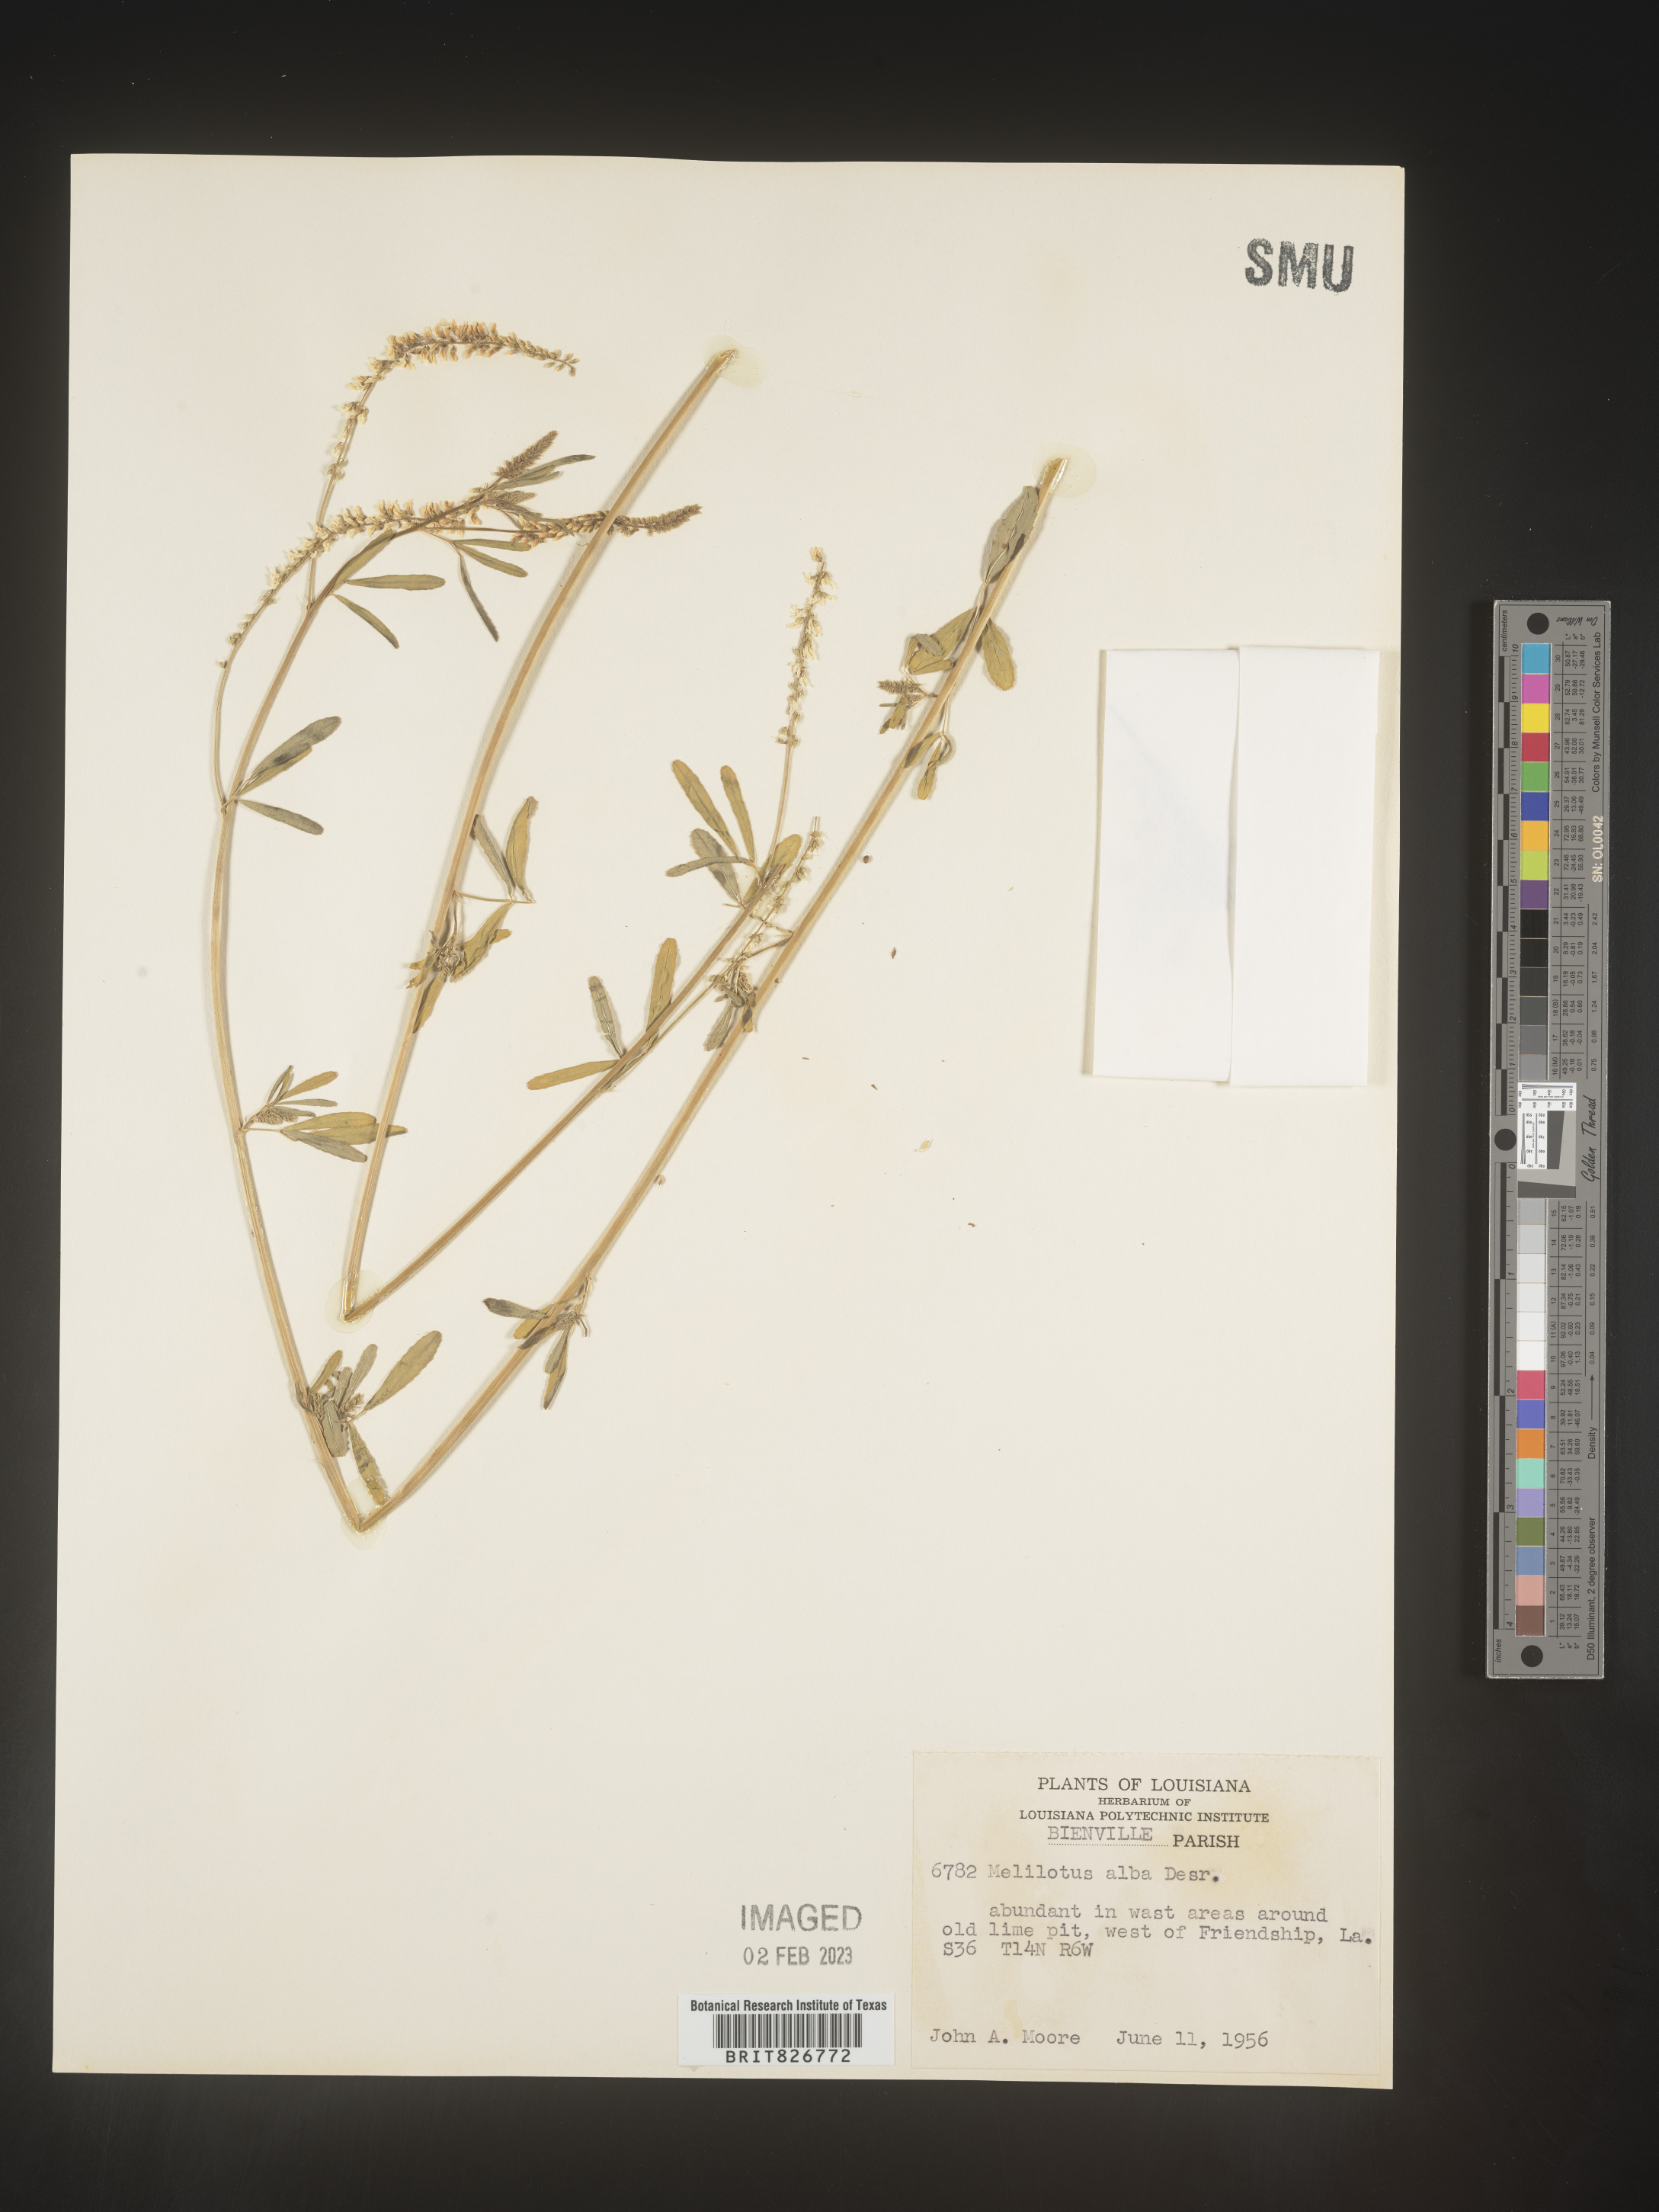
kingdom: Plantae
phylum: Tracheophyta
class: Magnoliopsida
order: Fabales
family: Fabaceae
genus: Melilotus
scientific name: Melilotus albus
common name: White melilot
